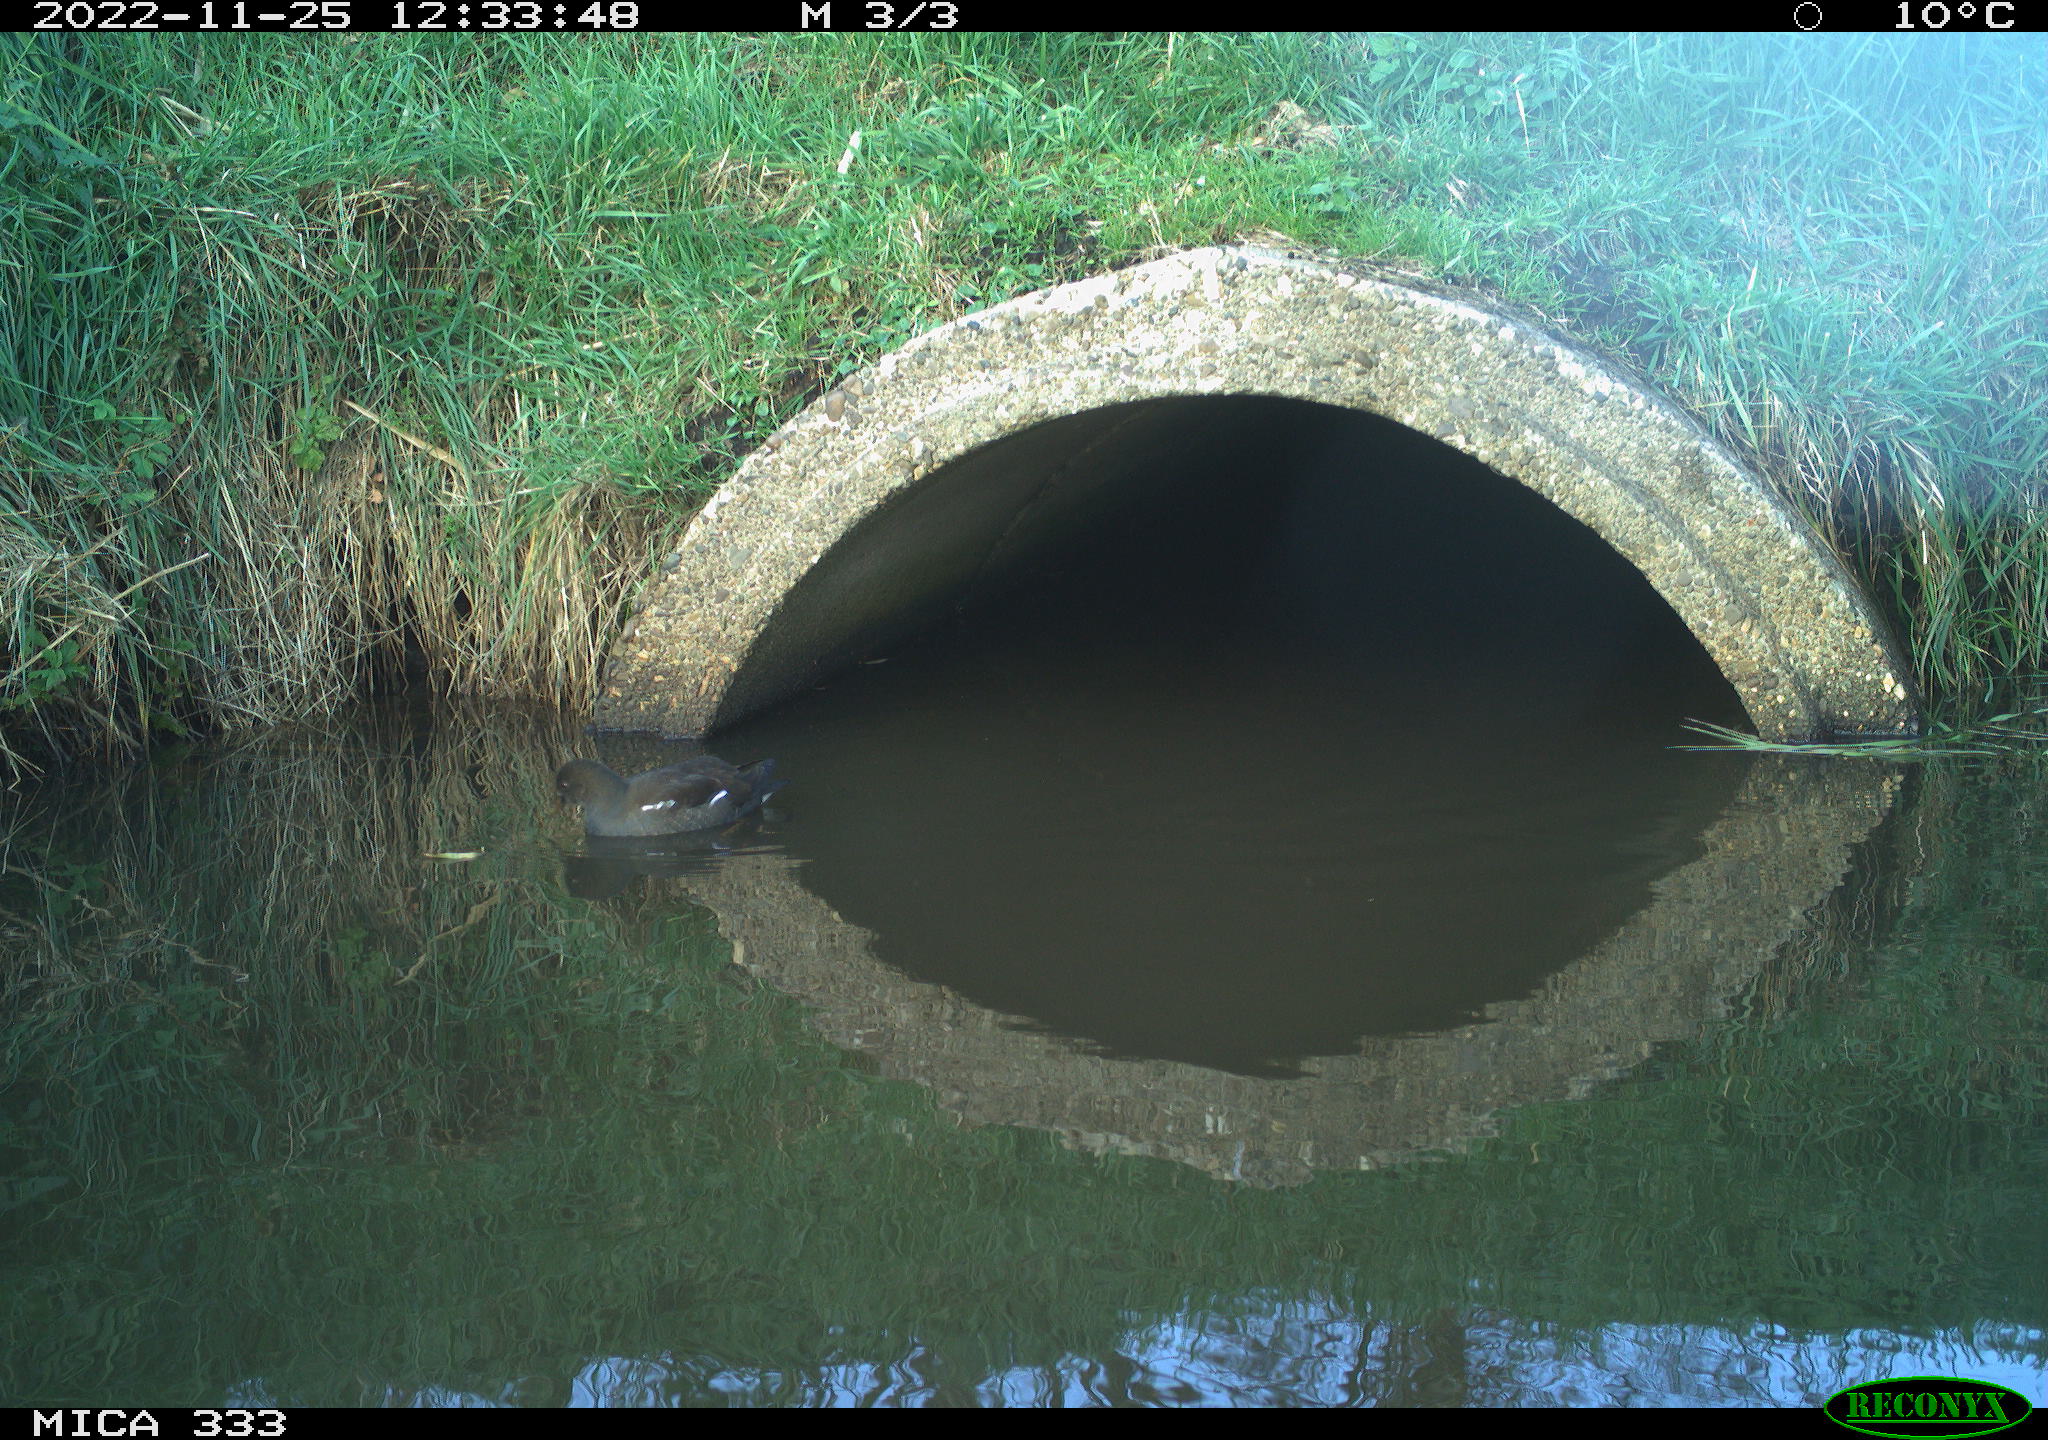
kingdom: Animalia
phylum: Chordata
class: Aves
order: Gruiformes
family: Rallidae
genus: Gallinula
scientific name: Gallinula chloropus
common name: Common moorhen
